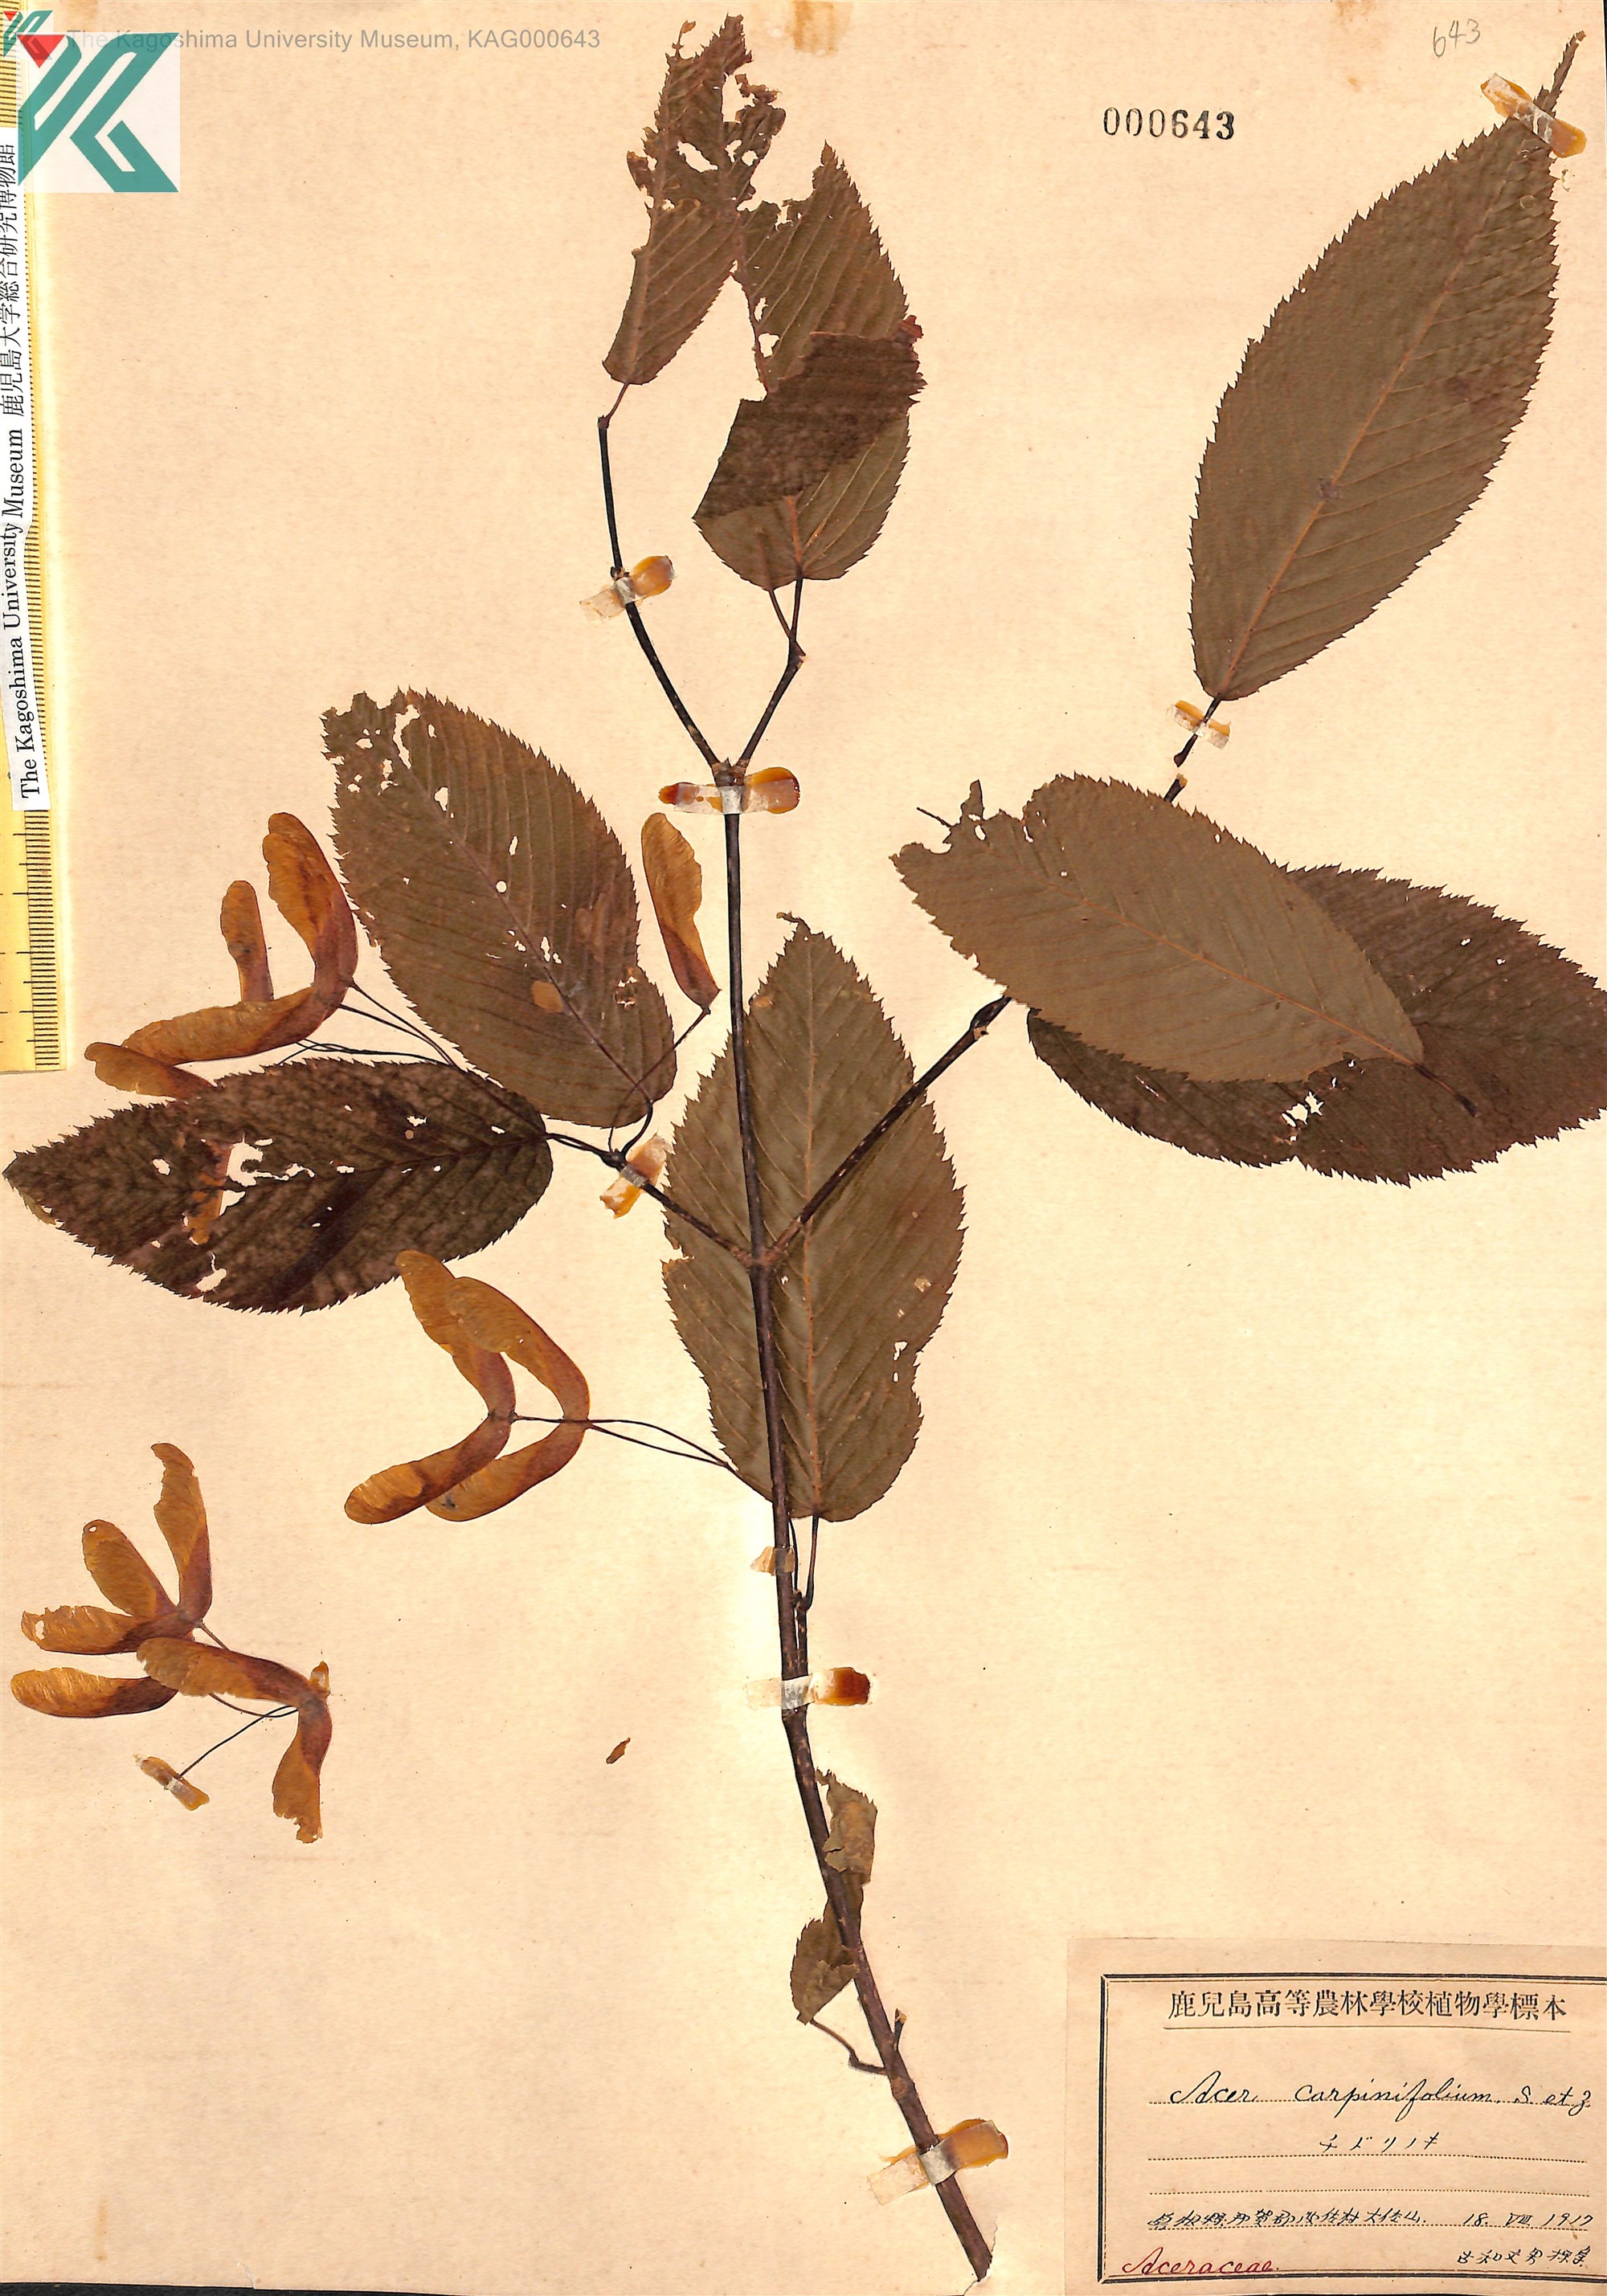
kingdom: Plantae
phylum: Tracheophyta
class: Magnoliopsida
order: Sapindales
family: Sapindaceae
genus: Acer
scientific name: Acer carpinifolium
